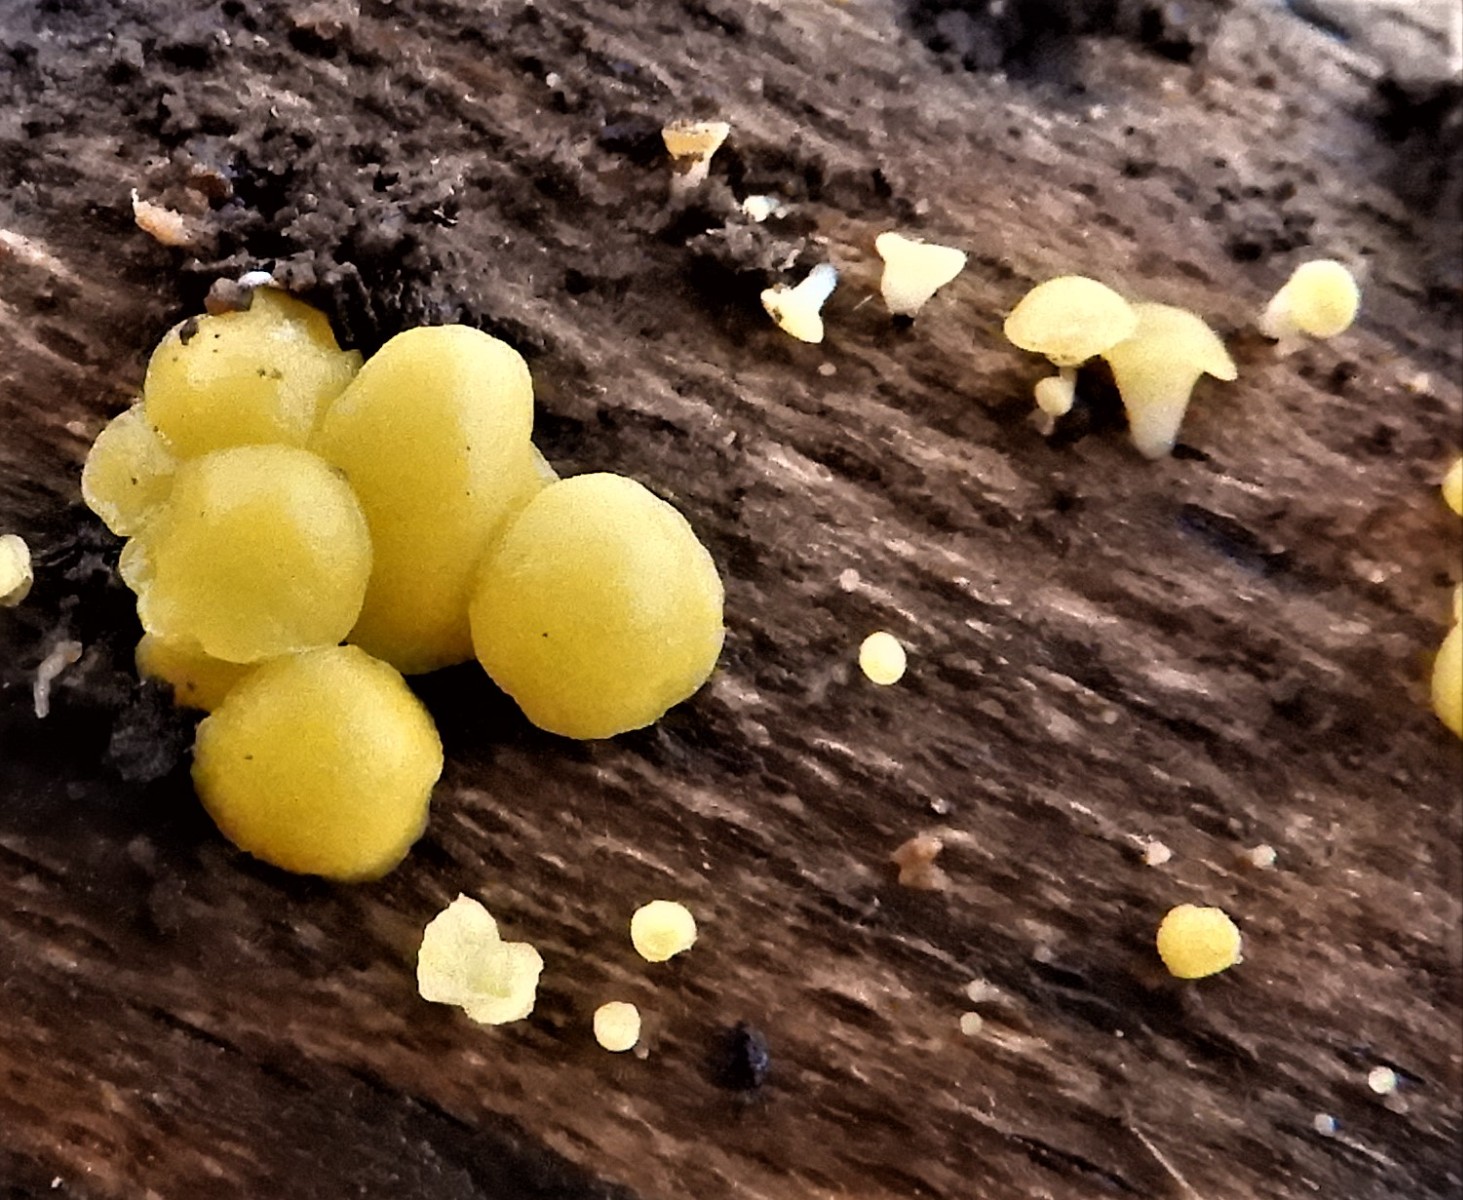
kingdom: Fungi
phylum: Ascomycota
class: Leotiomycetes
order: Helotiales
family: Pezizellaceae
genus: Calycina
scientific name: Calycina citrina
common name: almindelig gulskive
